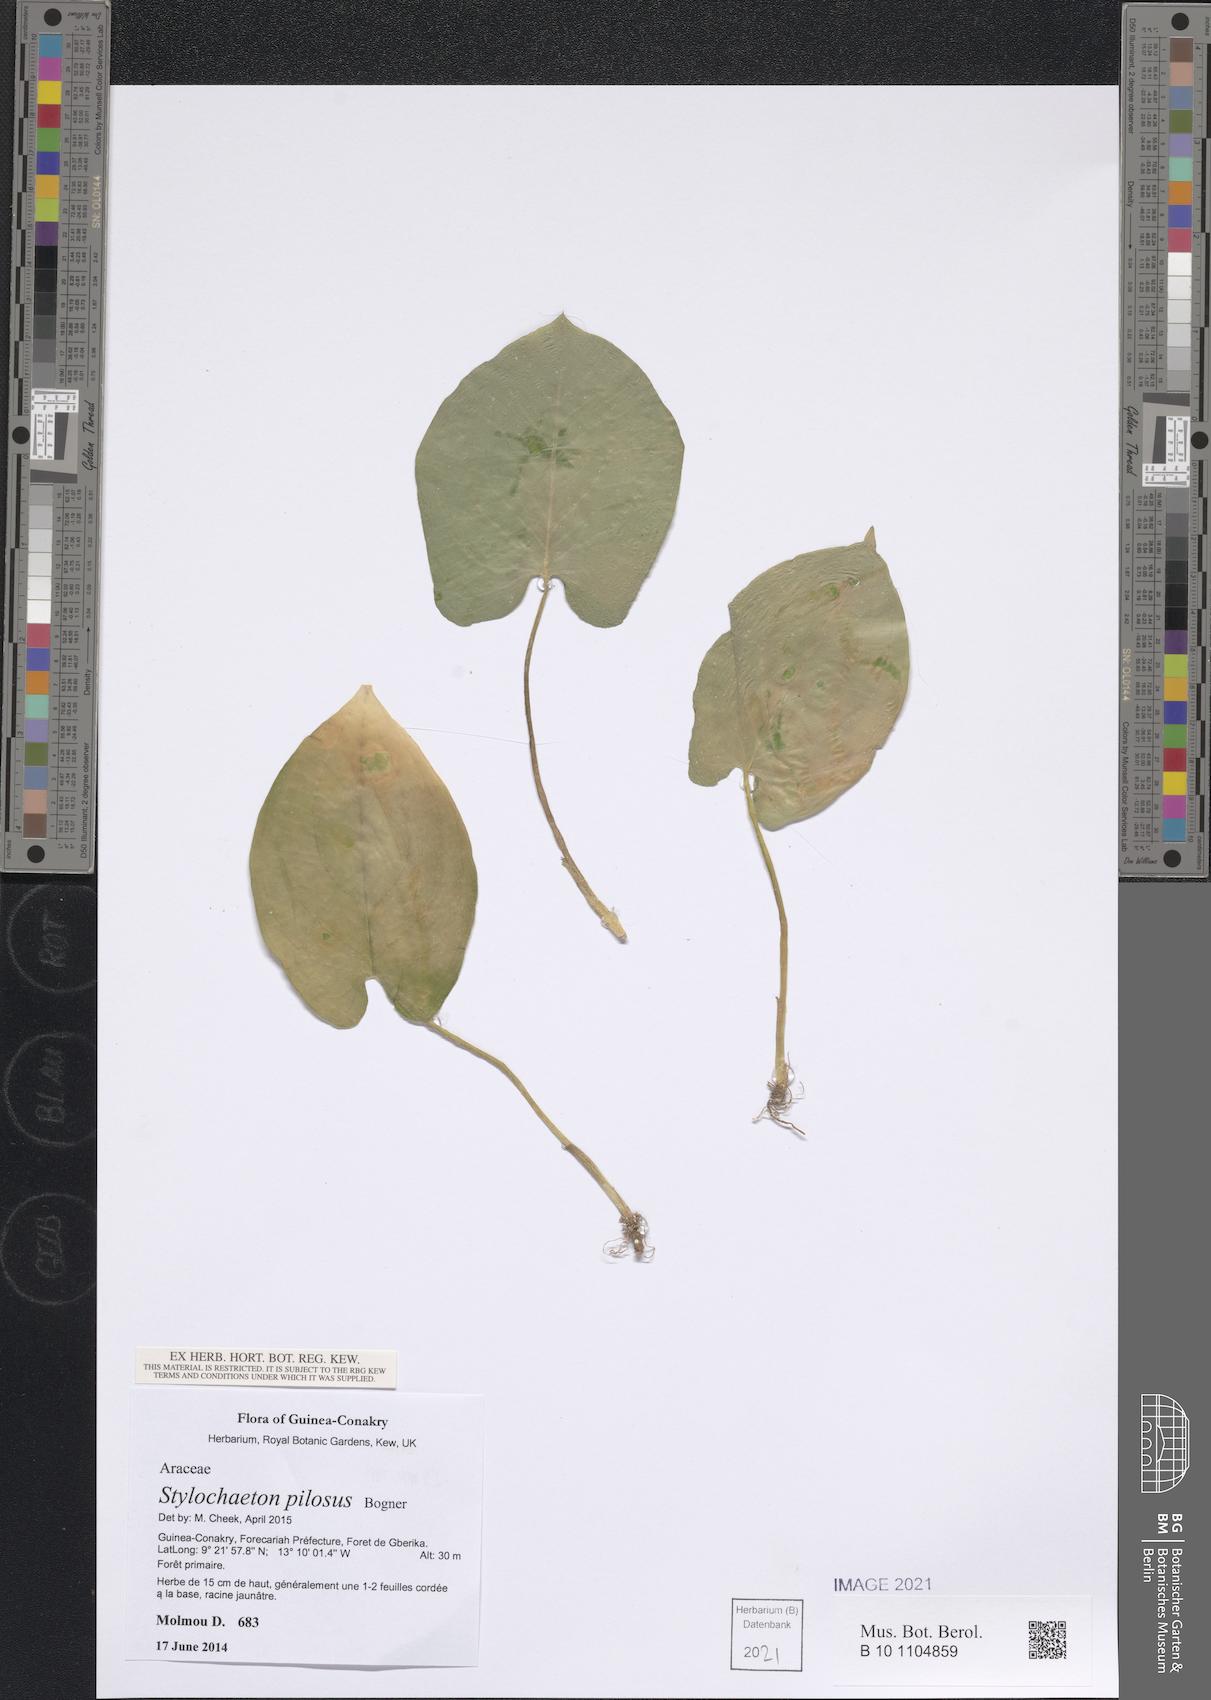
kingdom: Plantae
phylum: Tracheophyta
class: Liliopsida
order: Alismatales
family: Araceae
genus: Stylochaeton
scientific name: Stylochaeton pilosum
